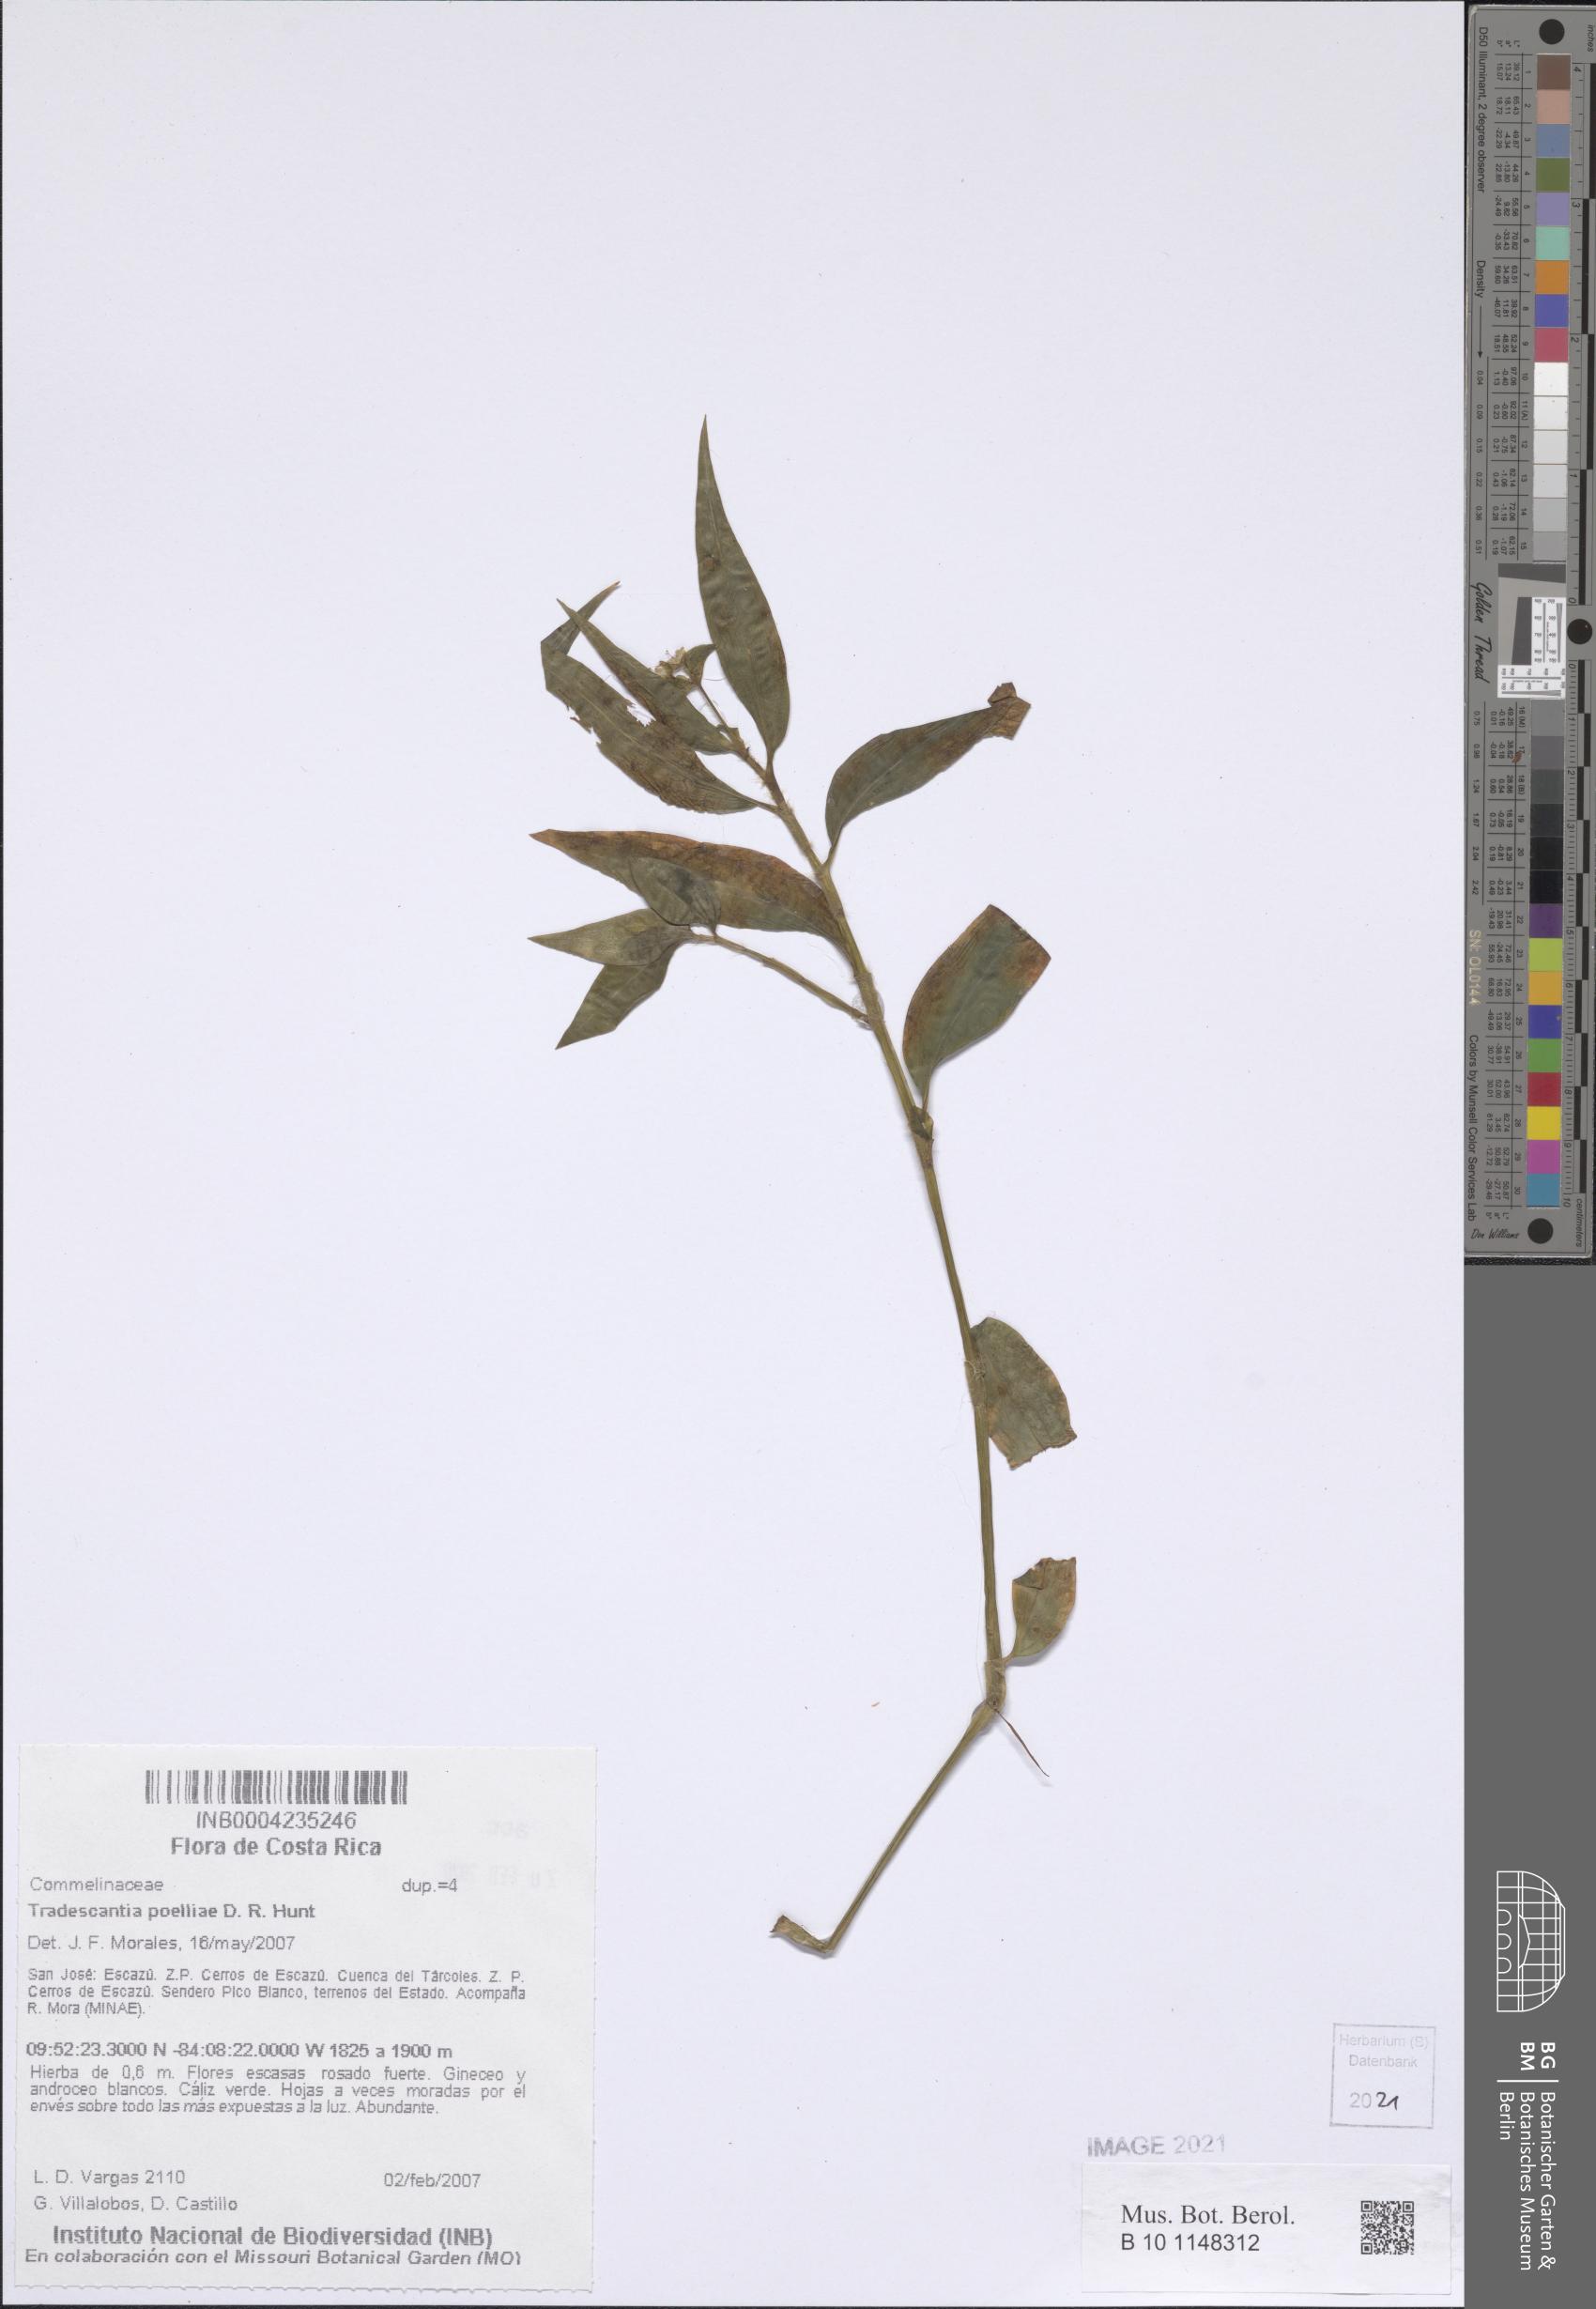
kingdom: Plantae
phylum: Tracheophyta
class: Liliopsida
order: Commelinales
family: Commelinaceae
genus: Tradescantia
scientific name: Tradescantia poelliae
